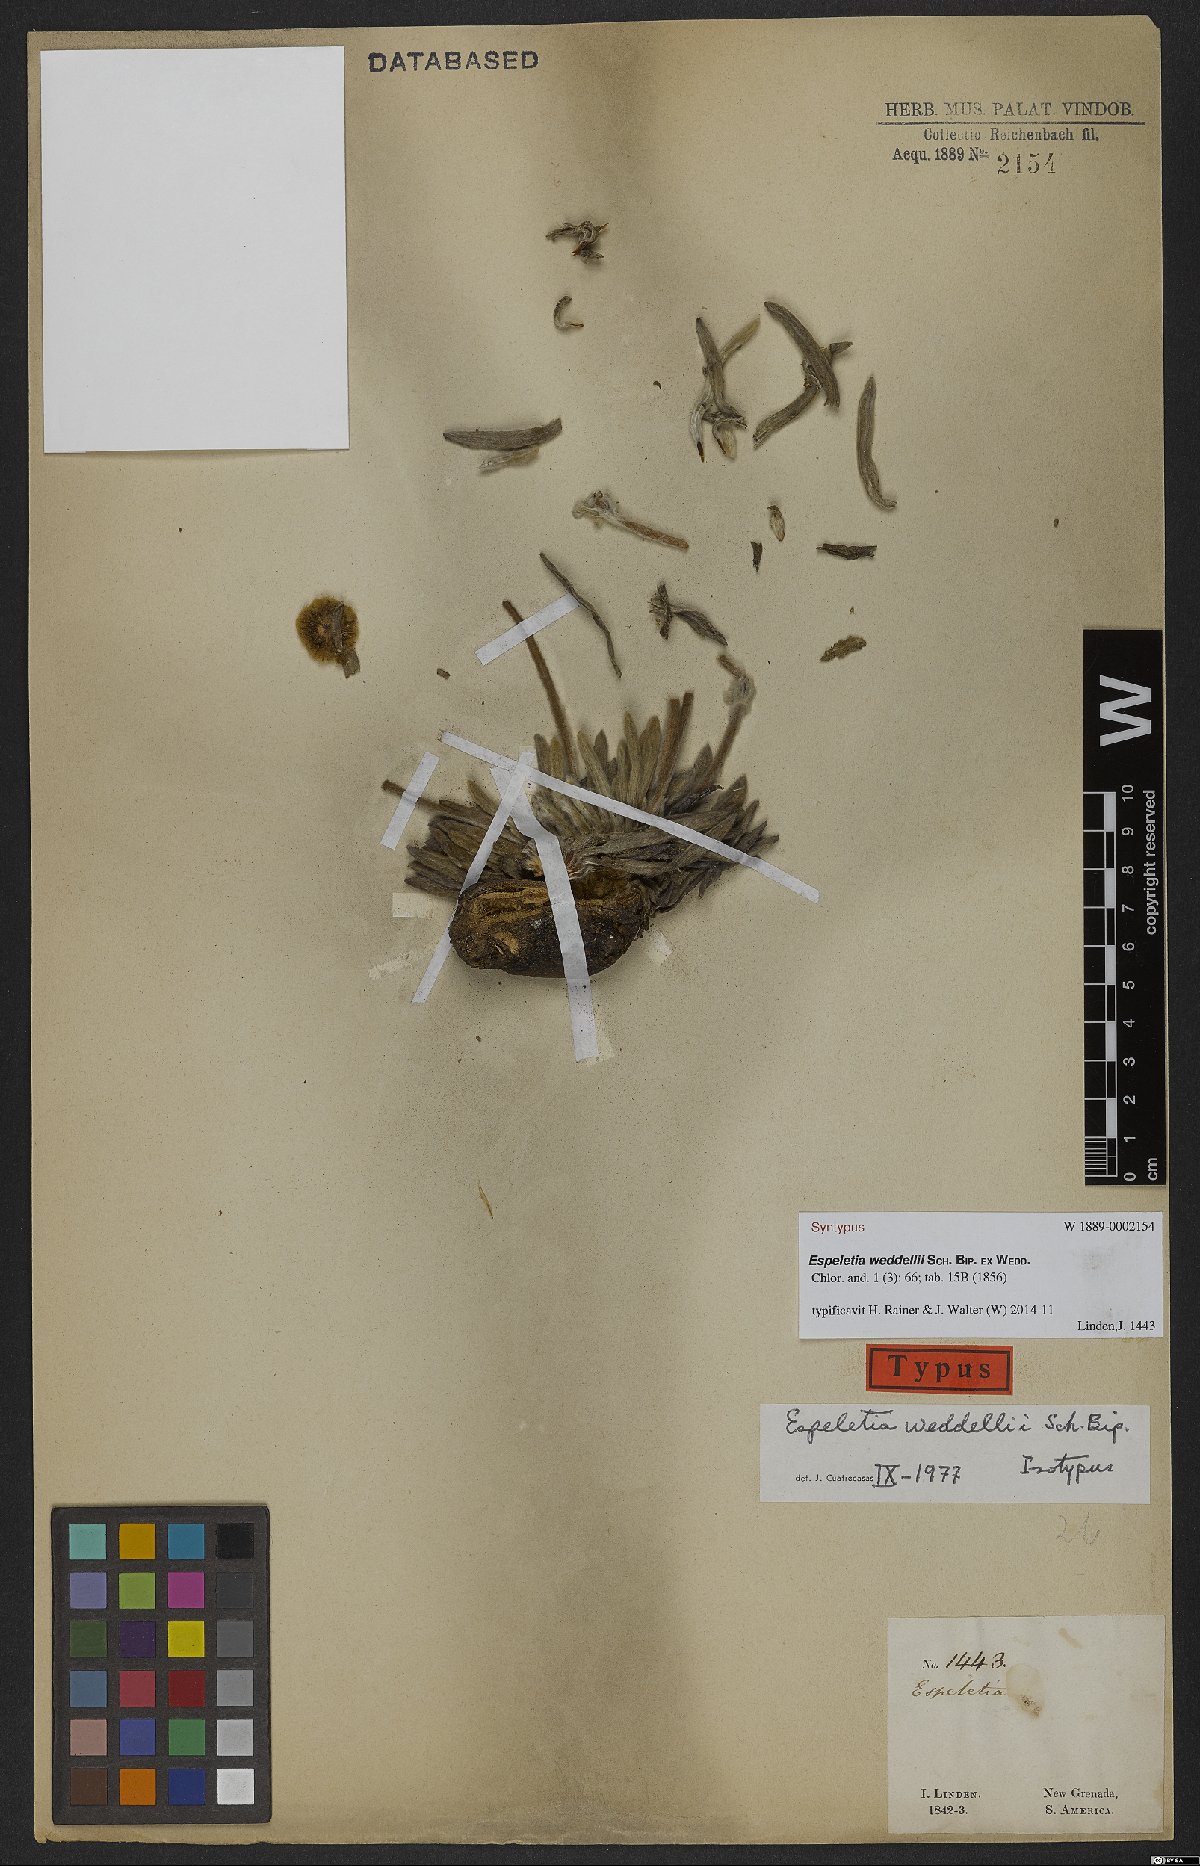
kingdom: Plantae
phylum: Tracheophyta
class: Magnoliopsida
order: Asterales
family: Asteraceae
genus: Espeletia
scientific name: Espeletia weddelii
